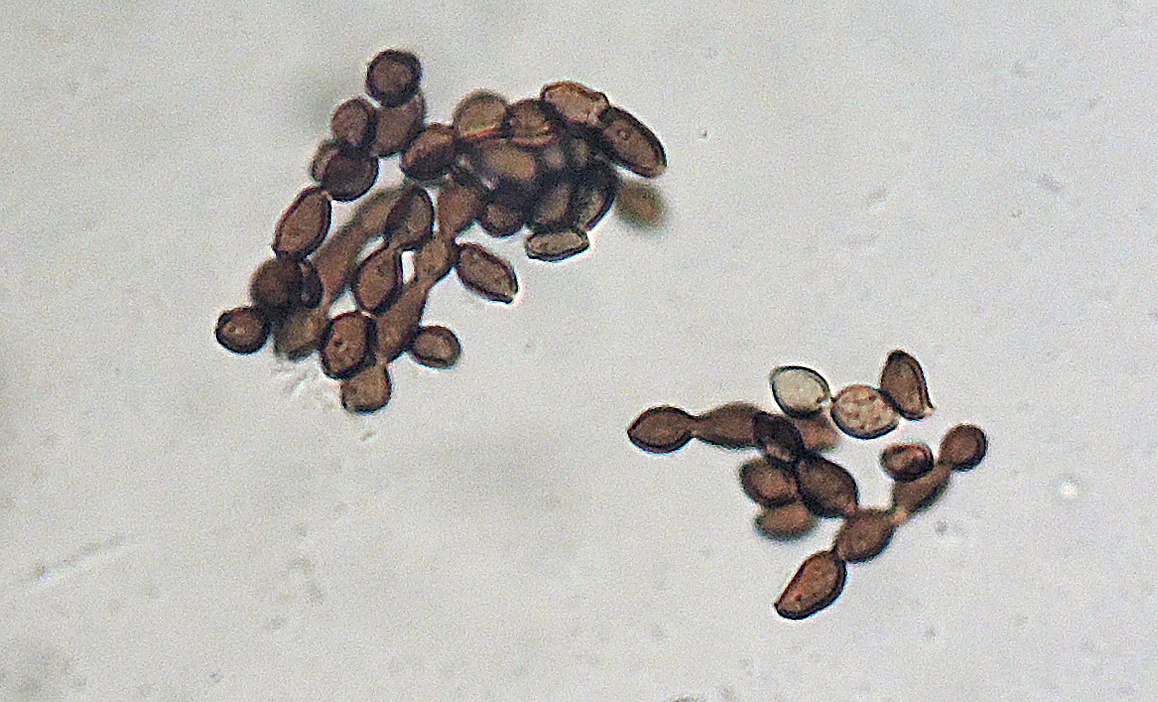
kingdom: Fungi
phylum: Ascomycota
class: Eurotiomycetes
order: Chaetothyriales
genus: Xylohypha
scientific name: Xylohypha ferruginosa
